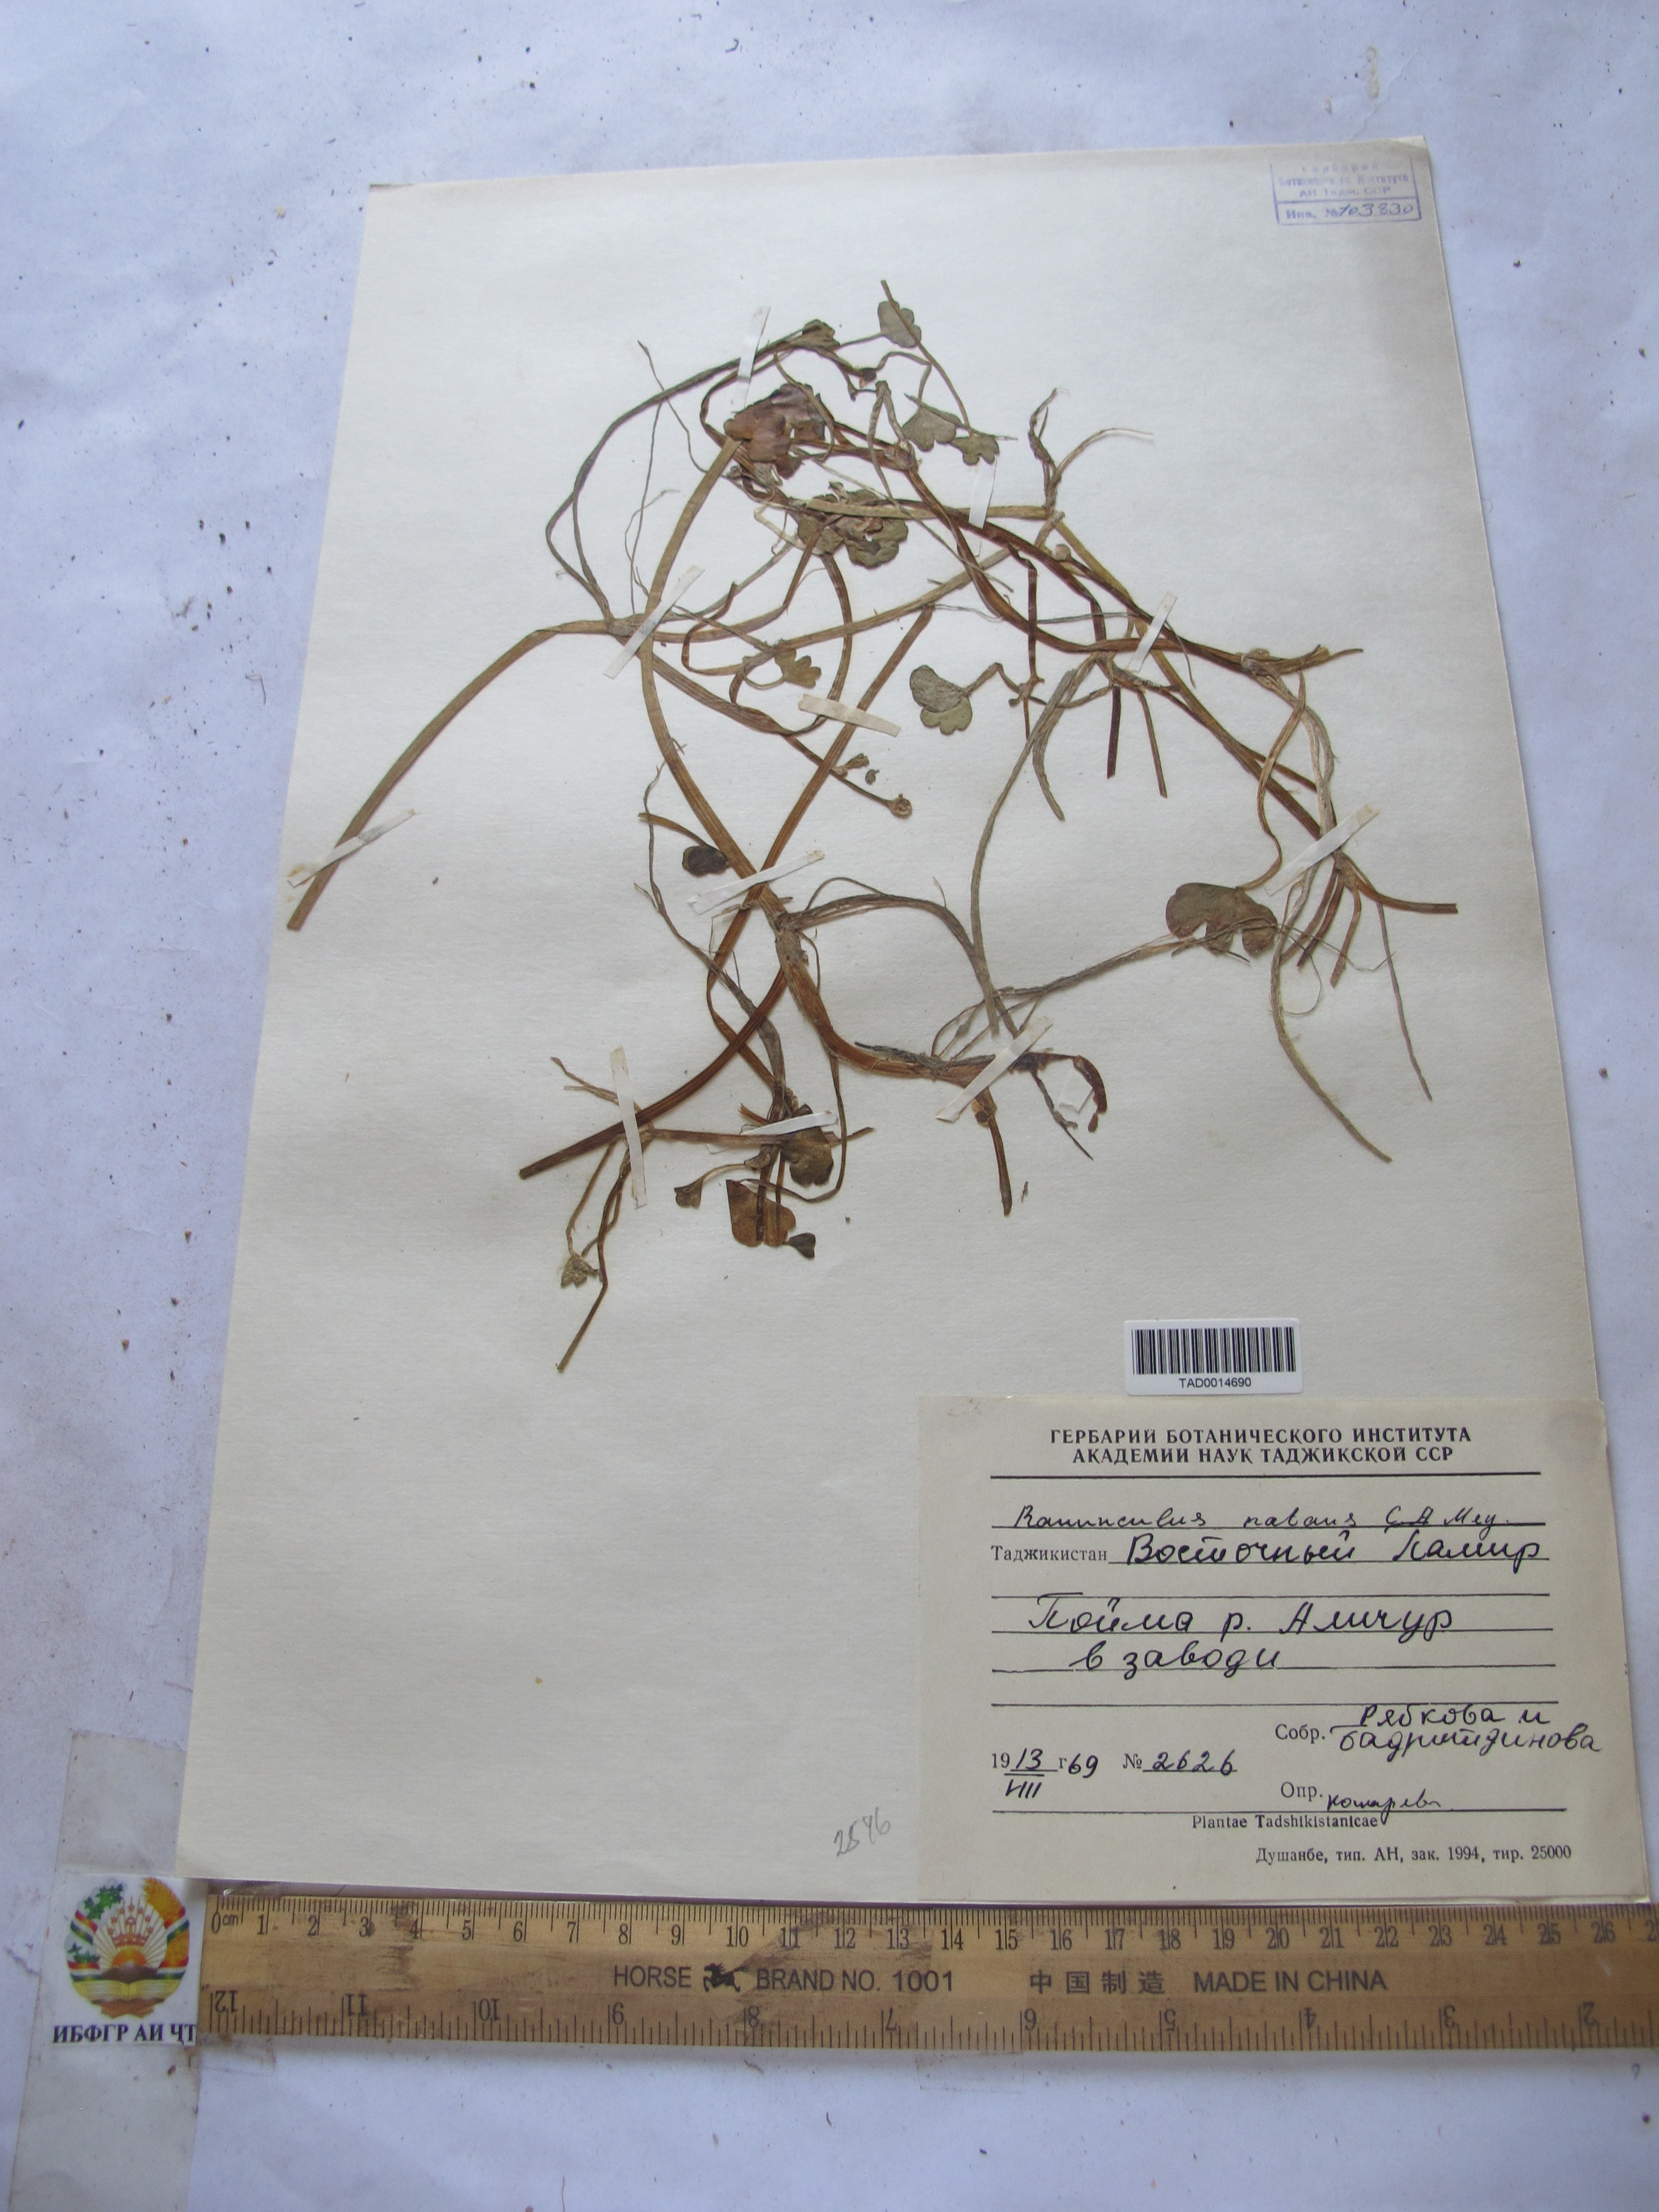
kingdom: Plantae
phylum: Tracheophyta
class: Magnoliopsida
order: Ranunculales
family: Ranunculaceae
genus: Ranunculus
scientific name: Ranunculus natans
